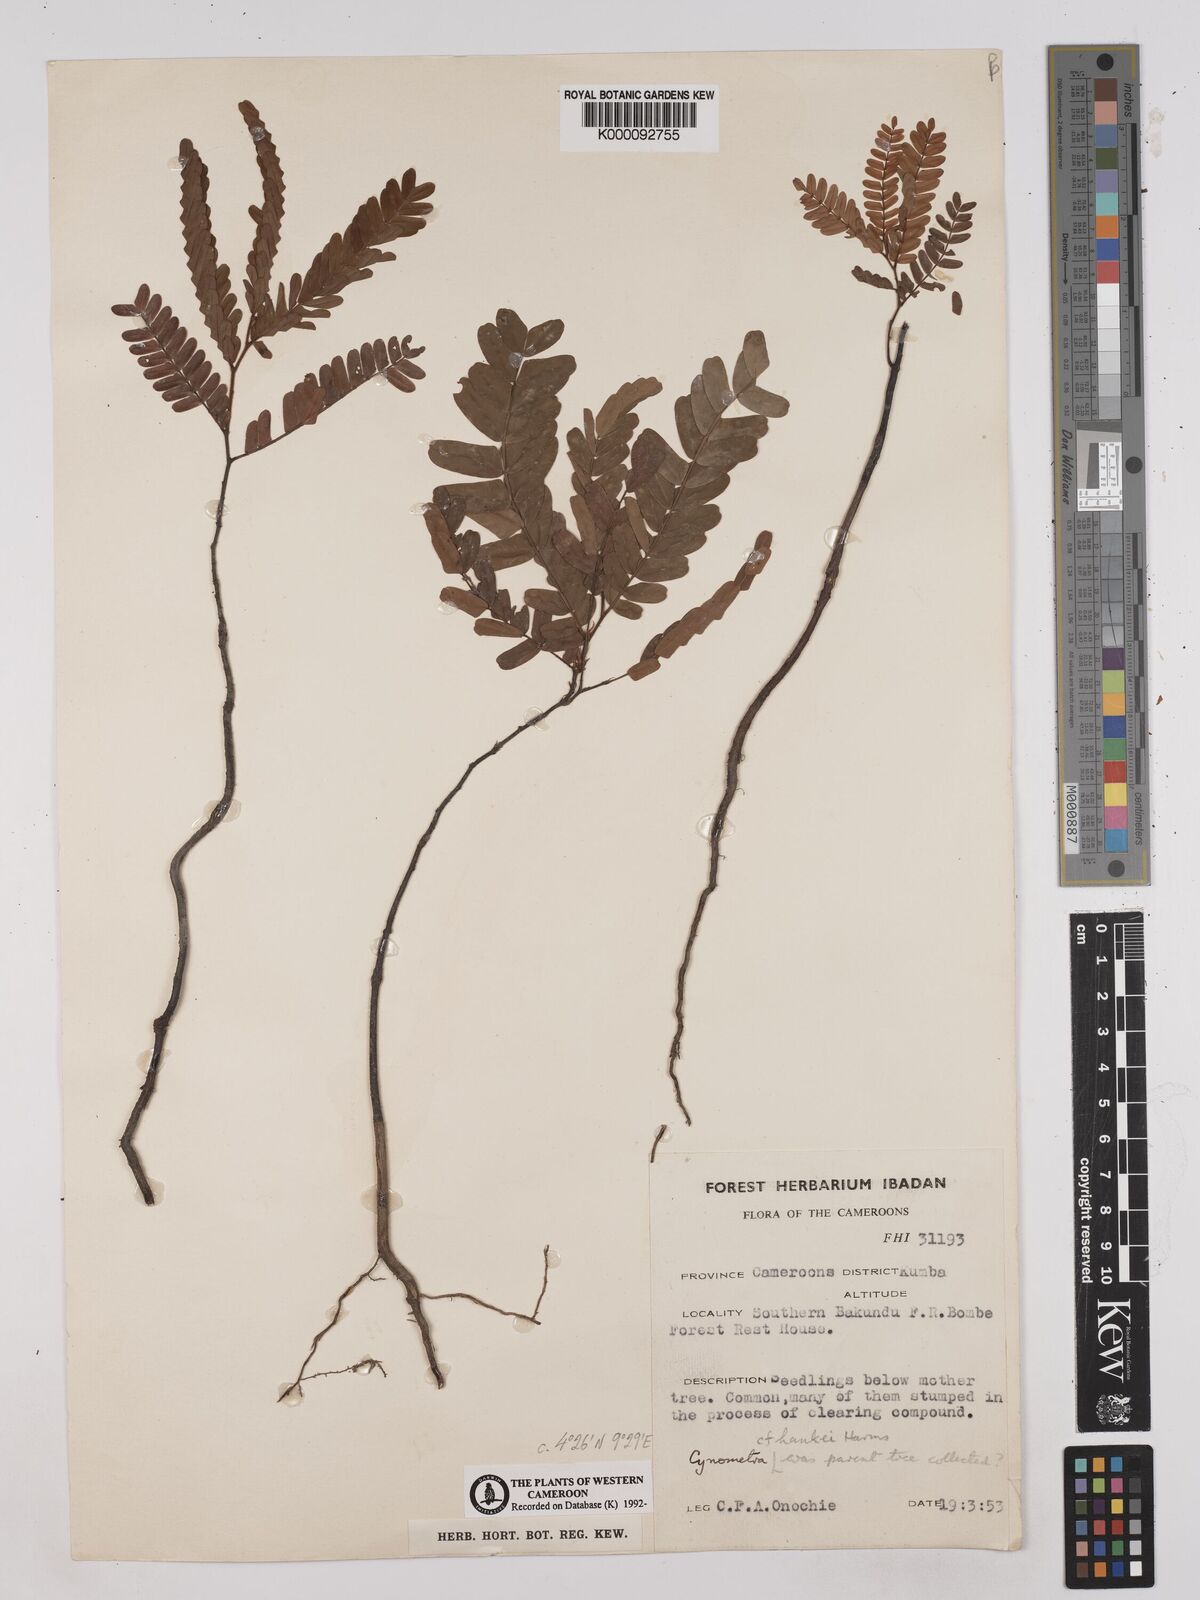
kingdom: Plantae
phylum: Tracheophyta
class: Magnoliopsida
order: Fabales
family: Fabaceae
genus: Cynometra
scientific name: Cynometra hankei
